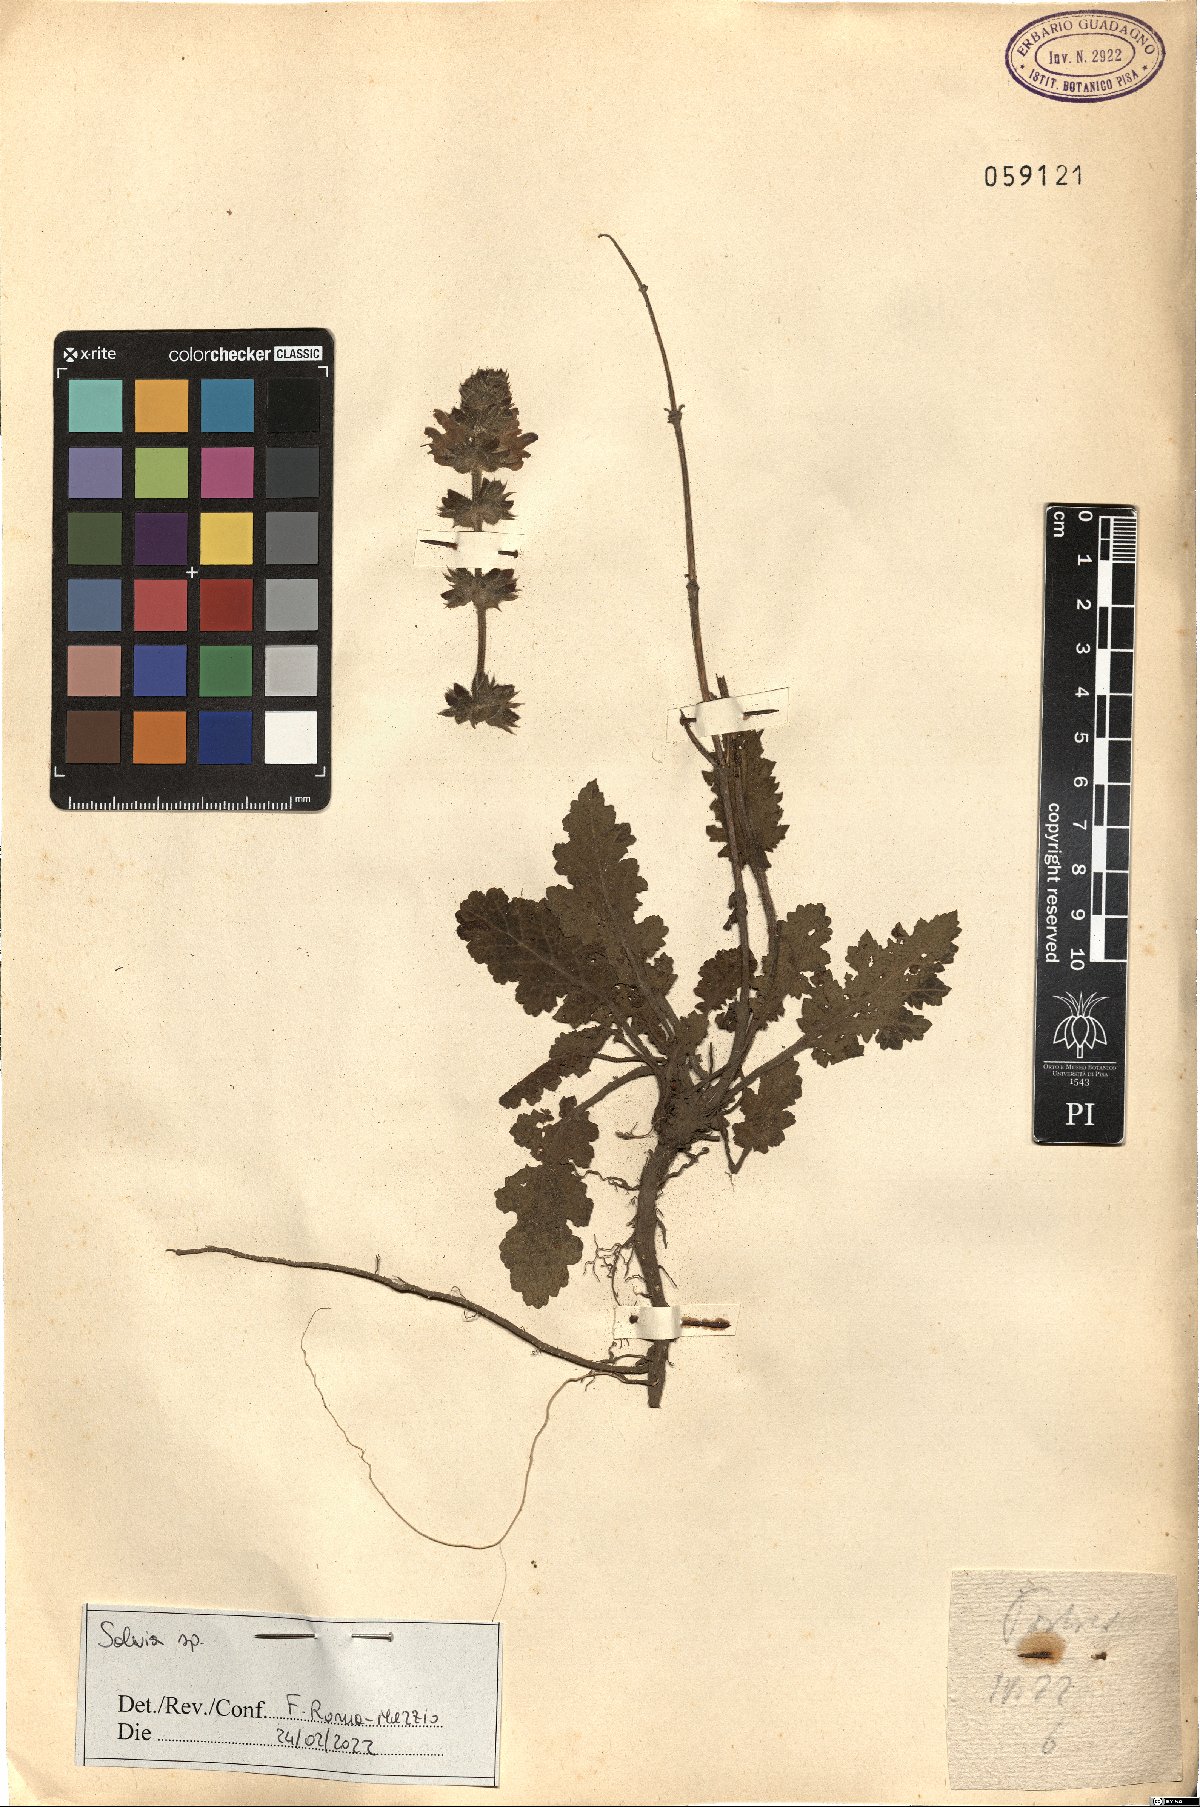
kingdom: Plantae
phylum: Tracheophyta
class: Magnoliopsida
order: Lamiales
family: Lamiaceae
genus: Salvia
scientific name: Salvia
